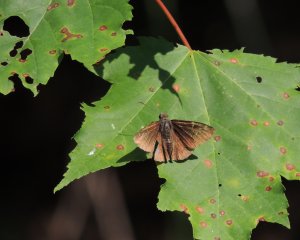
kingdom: Animalia
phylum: Arthropoda
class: Insecta
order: Lepidoptera
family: Hesperiidae
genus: Autochton
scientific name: Autochton
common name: Northern Cloudywing
